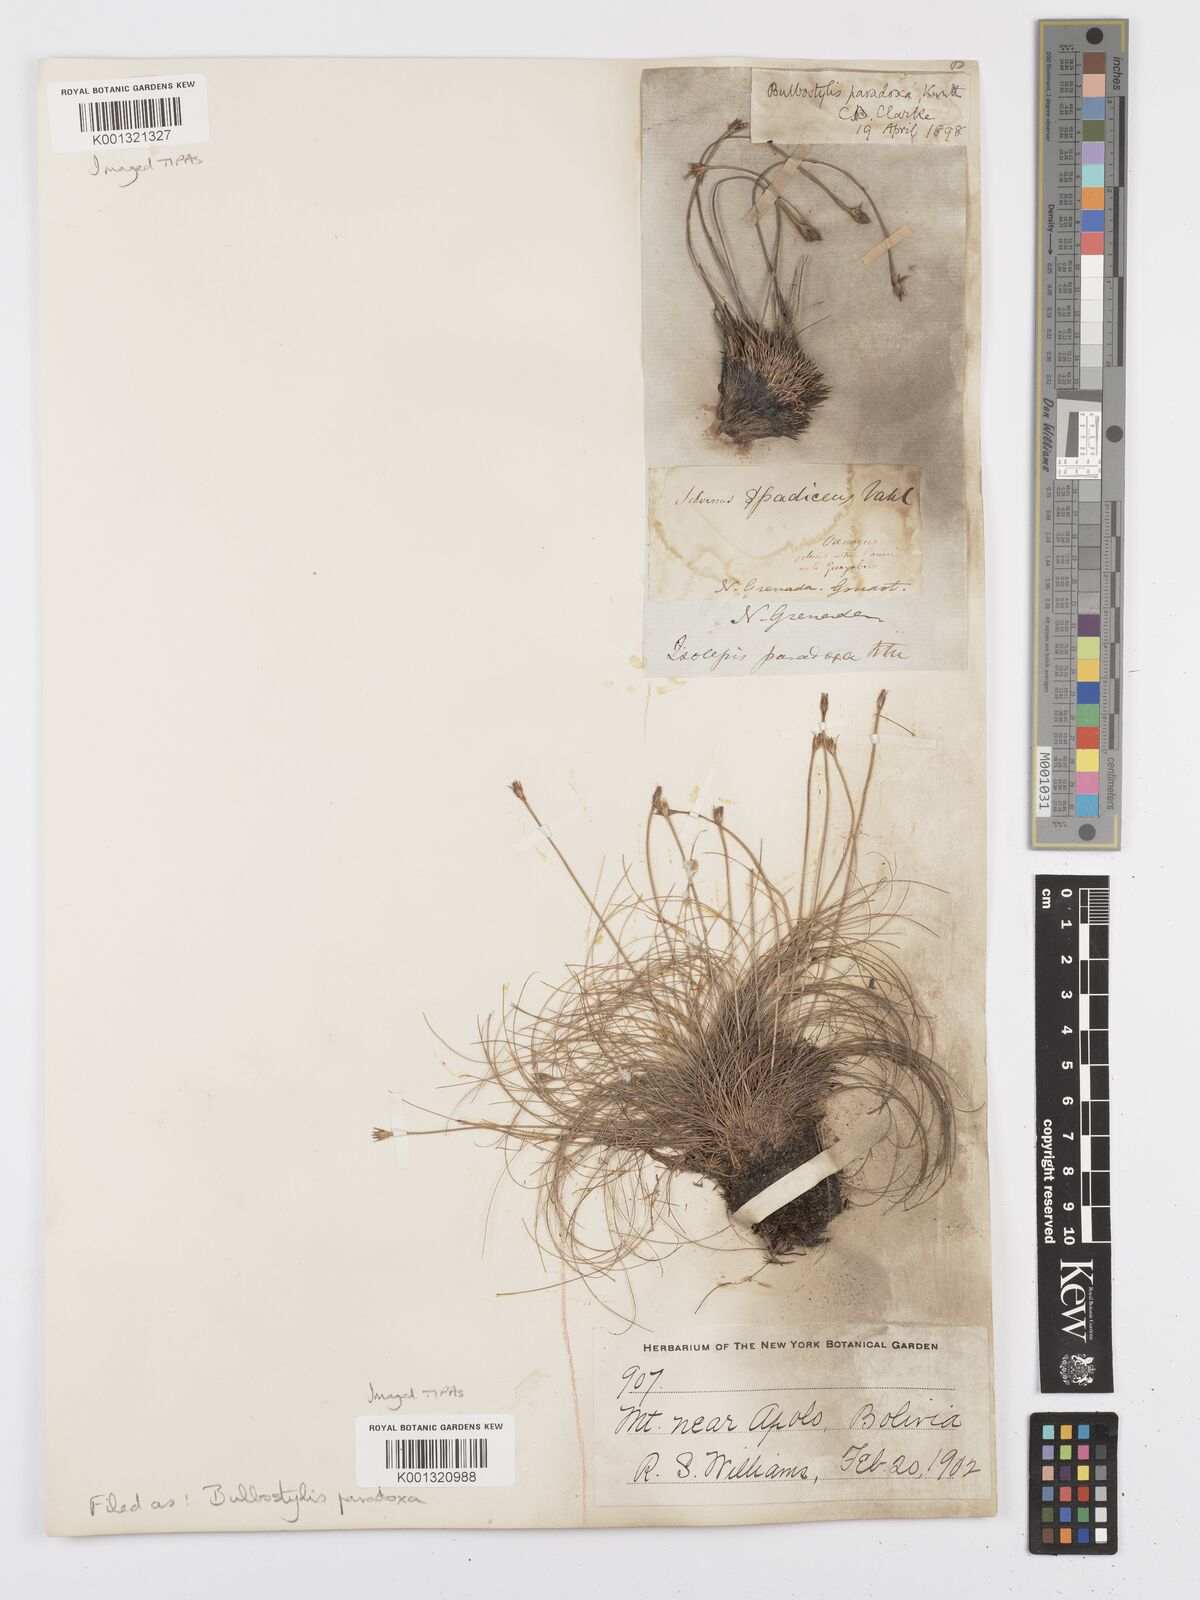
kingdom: Plantae
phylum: Tracheophyta
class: Liliopsida
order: Poales
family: Cyperaceae
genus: Bulbostylis
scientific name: Bulbostylis
